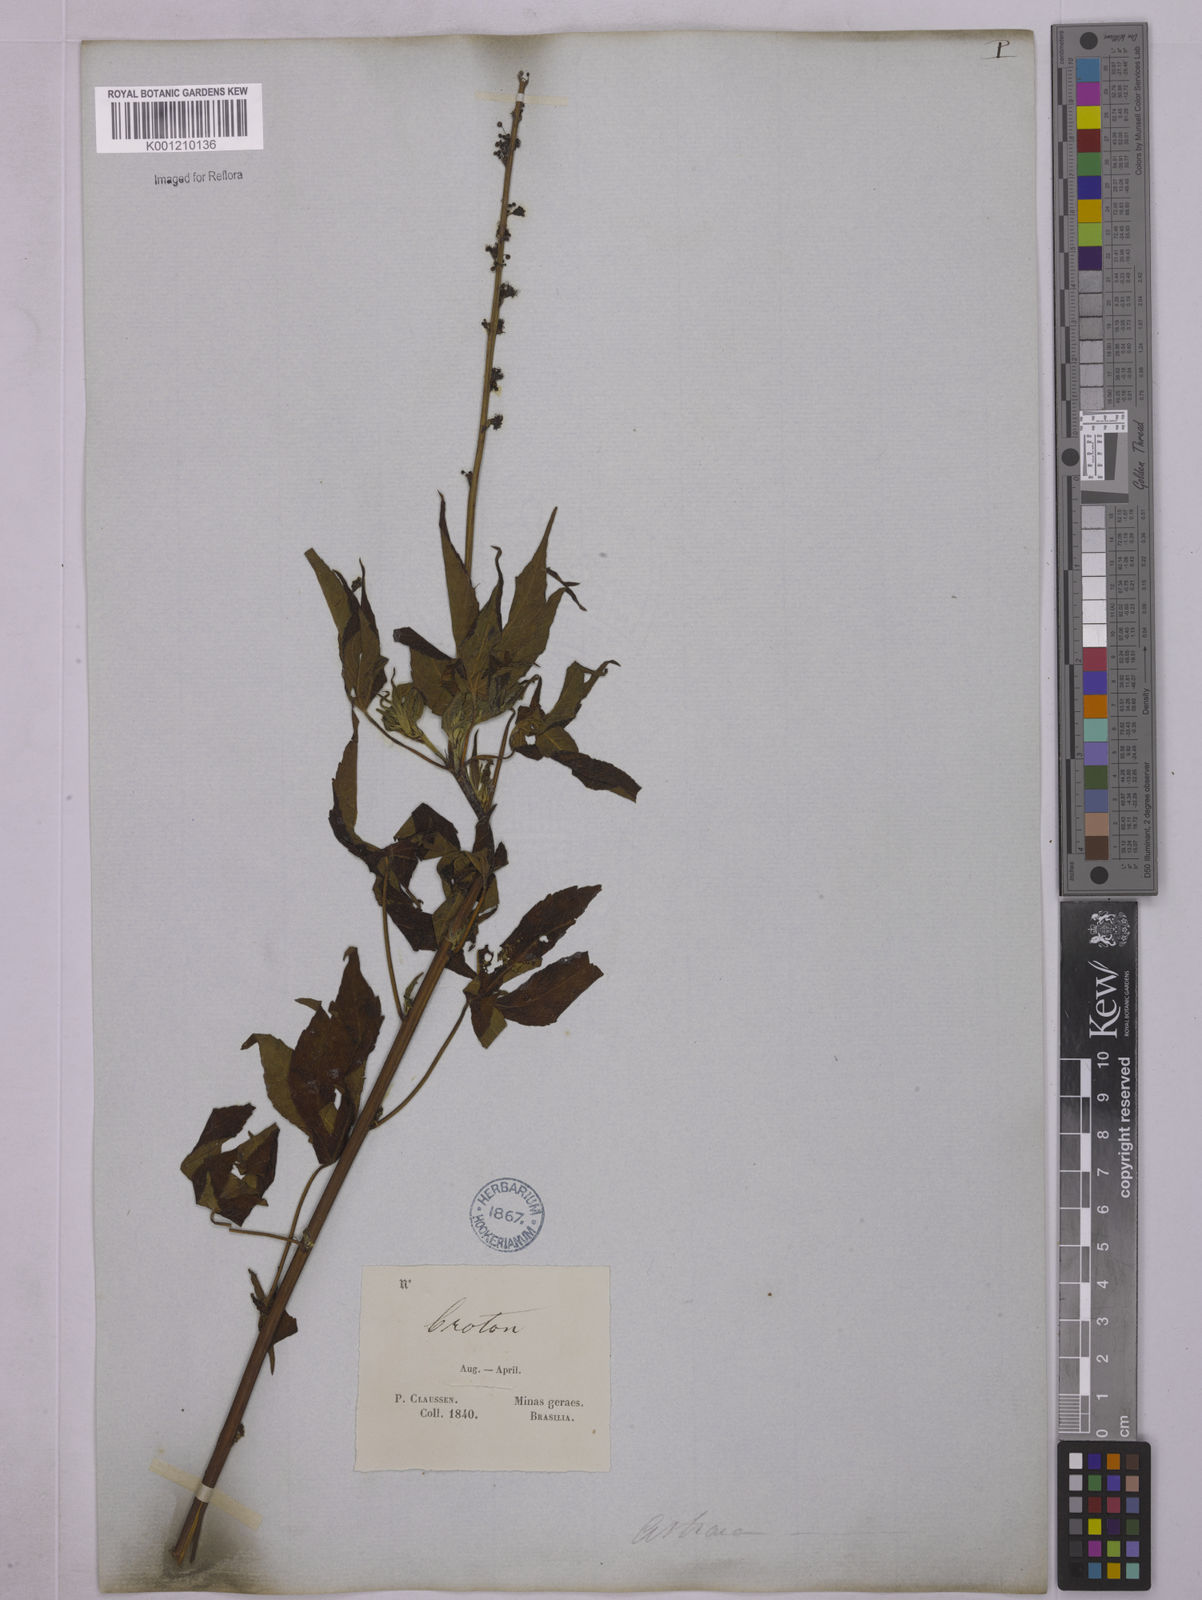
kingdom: Plantae
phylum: Tracheophyta
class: Magnoliopsida
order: Malpighiales
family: Euphorbiaceae
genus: Astraea
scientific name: Astraea macroura
